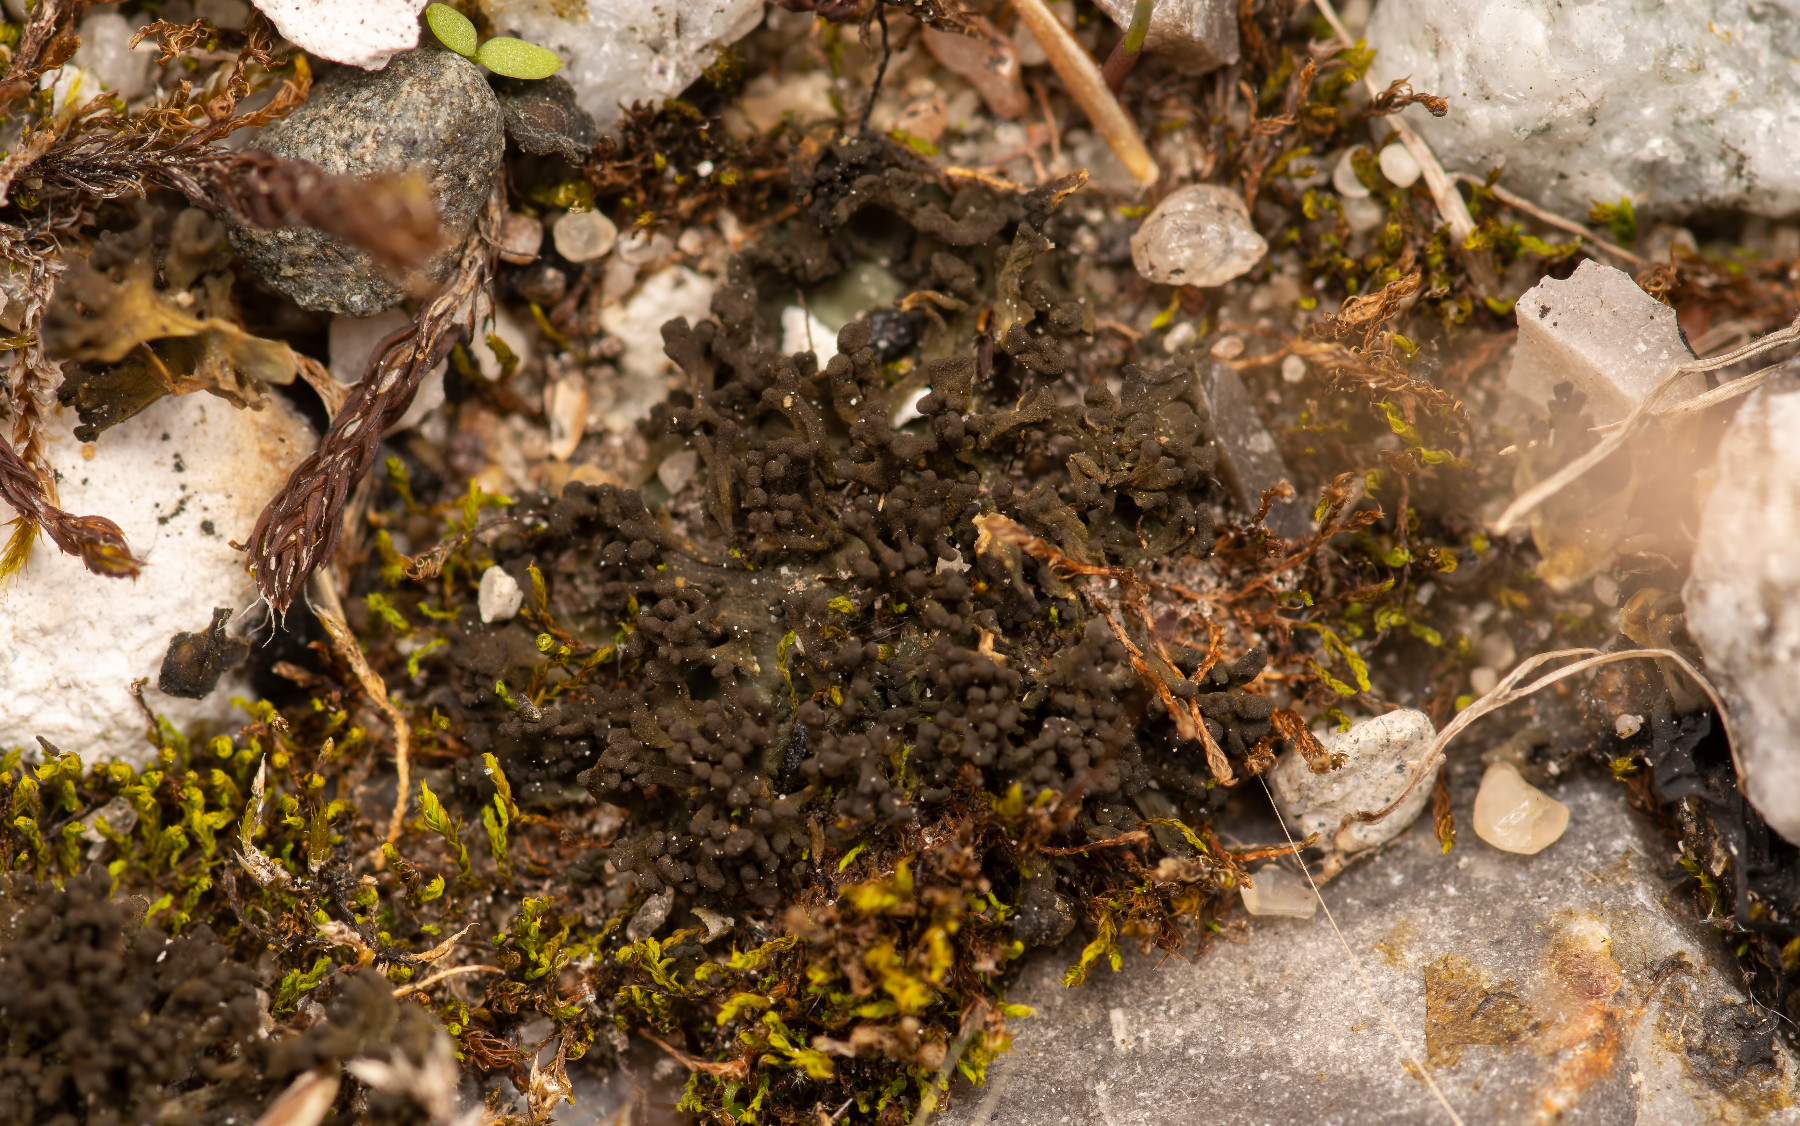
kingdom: Fungi
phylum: Ascomycota
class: Lecanoromycetes
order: Peltigerales
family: Collemataceae
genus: Enchylium
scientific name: Enchylium tenax
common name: tyk bævrelav
